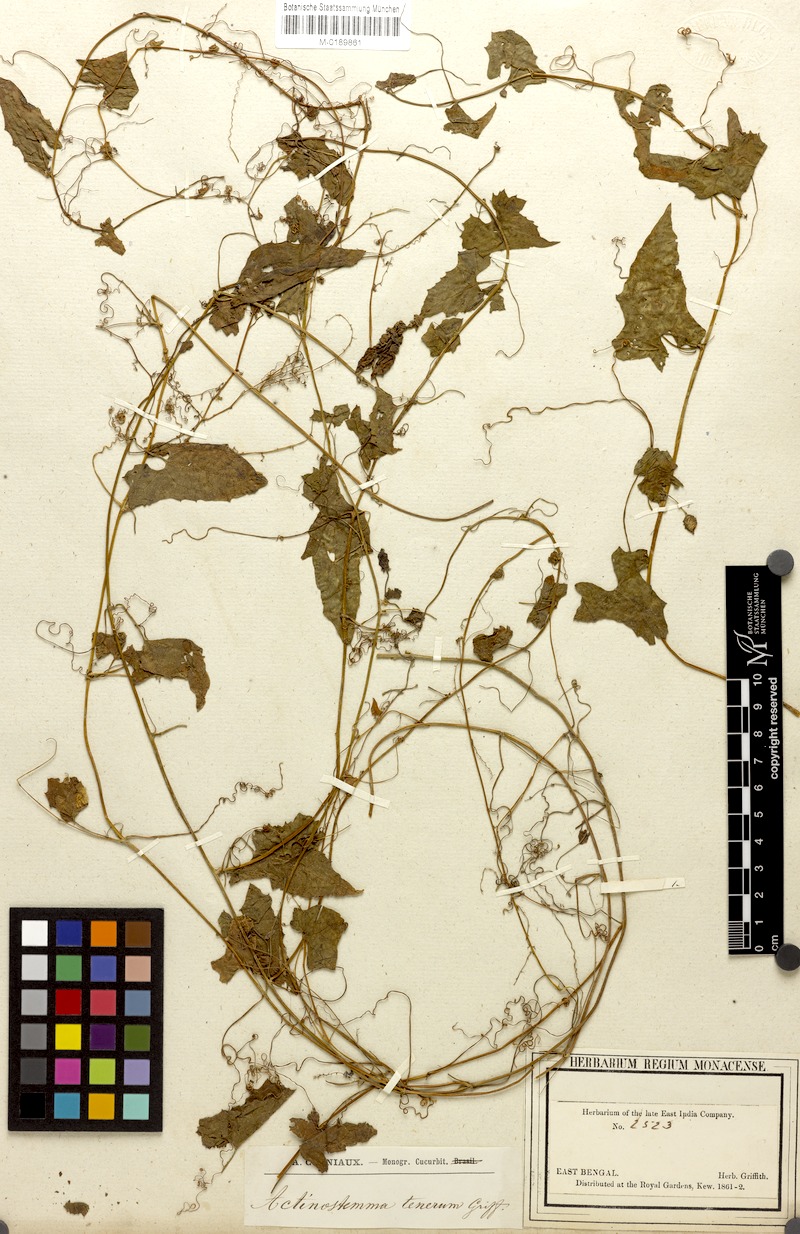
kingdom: Plantae
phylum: Tracheophyta
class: Magnoliopsida
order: Cucurbitales
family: Cucurbitaceae
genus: Actinostemma
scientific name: Actinostemma tenerum
